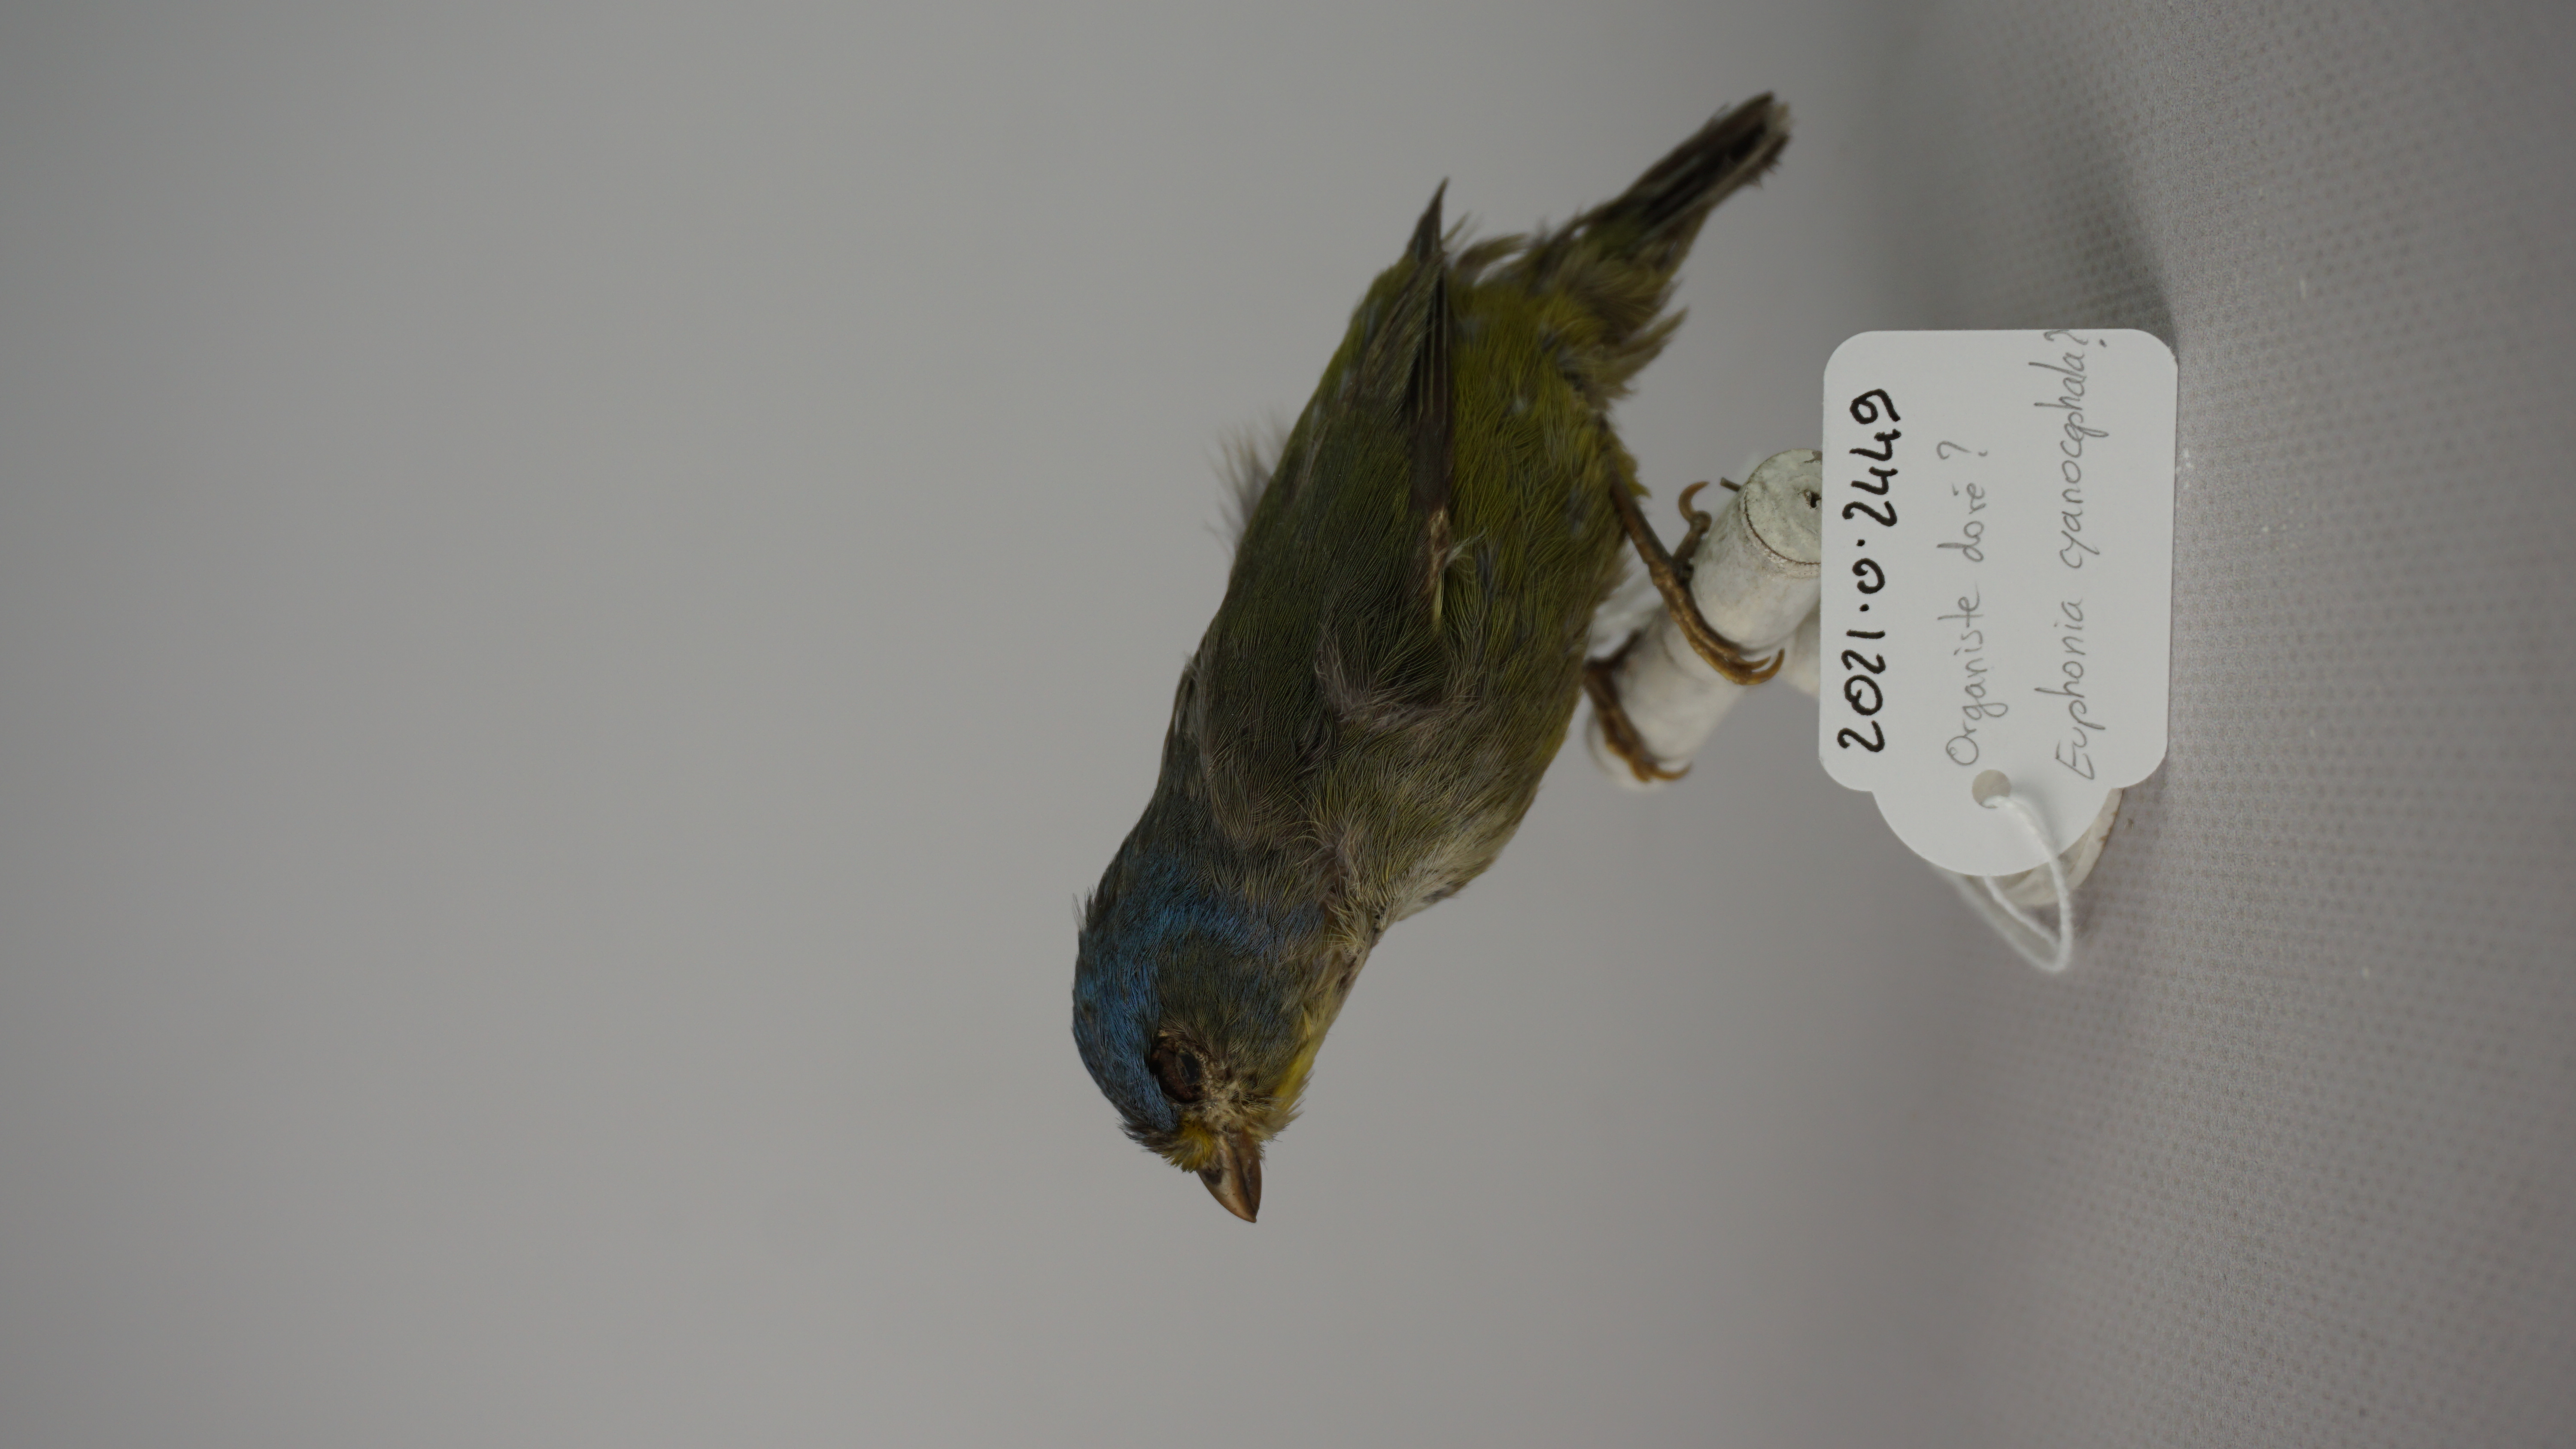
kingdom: Animalia
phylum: Chordata
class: Aves
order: Passeriformes
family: Fringillidae
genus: Euphonia
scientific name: Euphonia cyanocephala
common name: Golden-rumped euphonia
